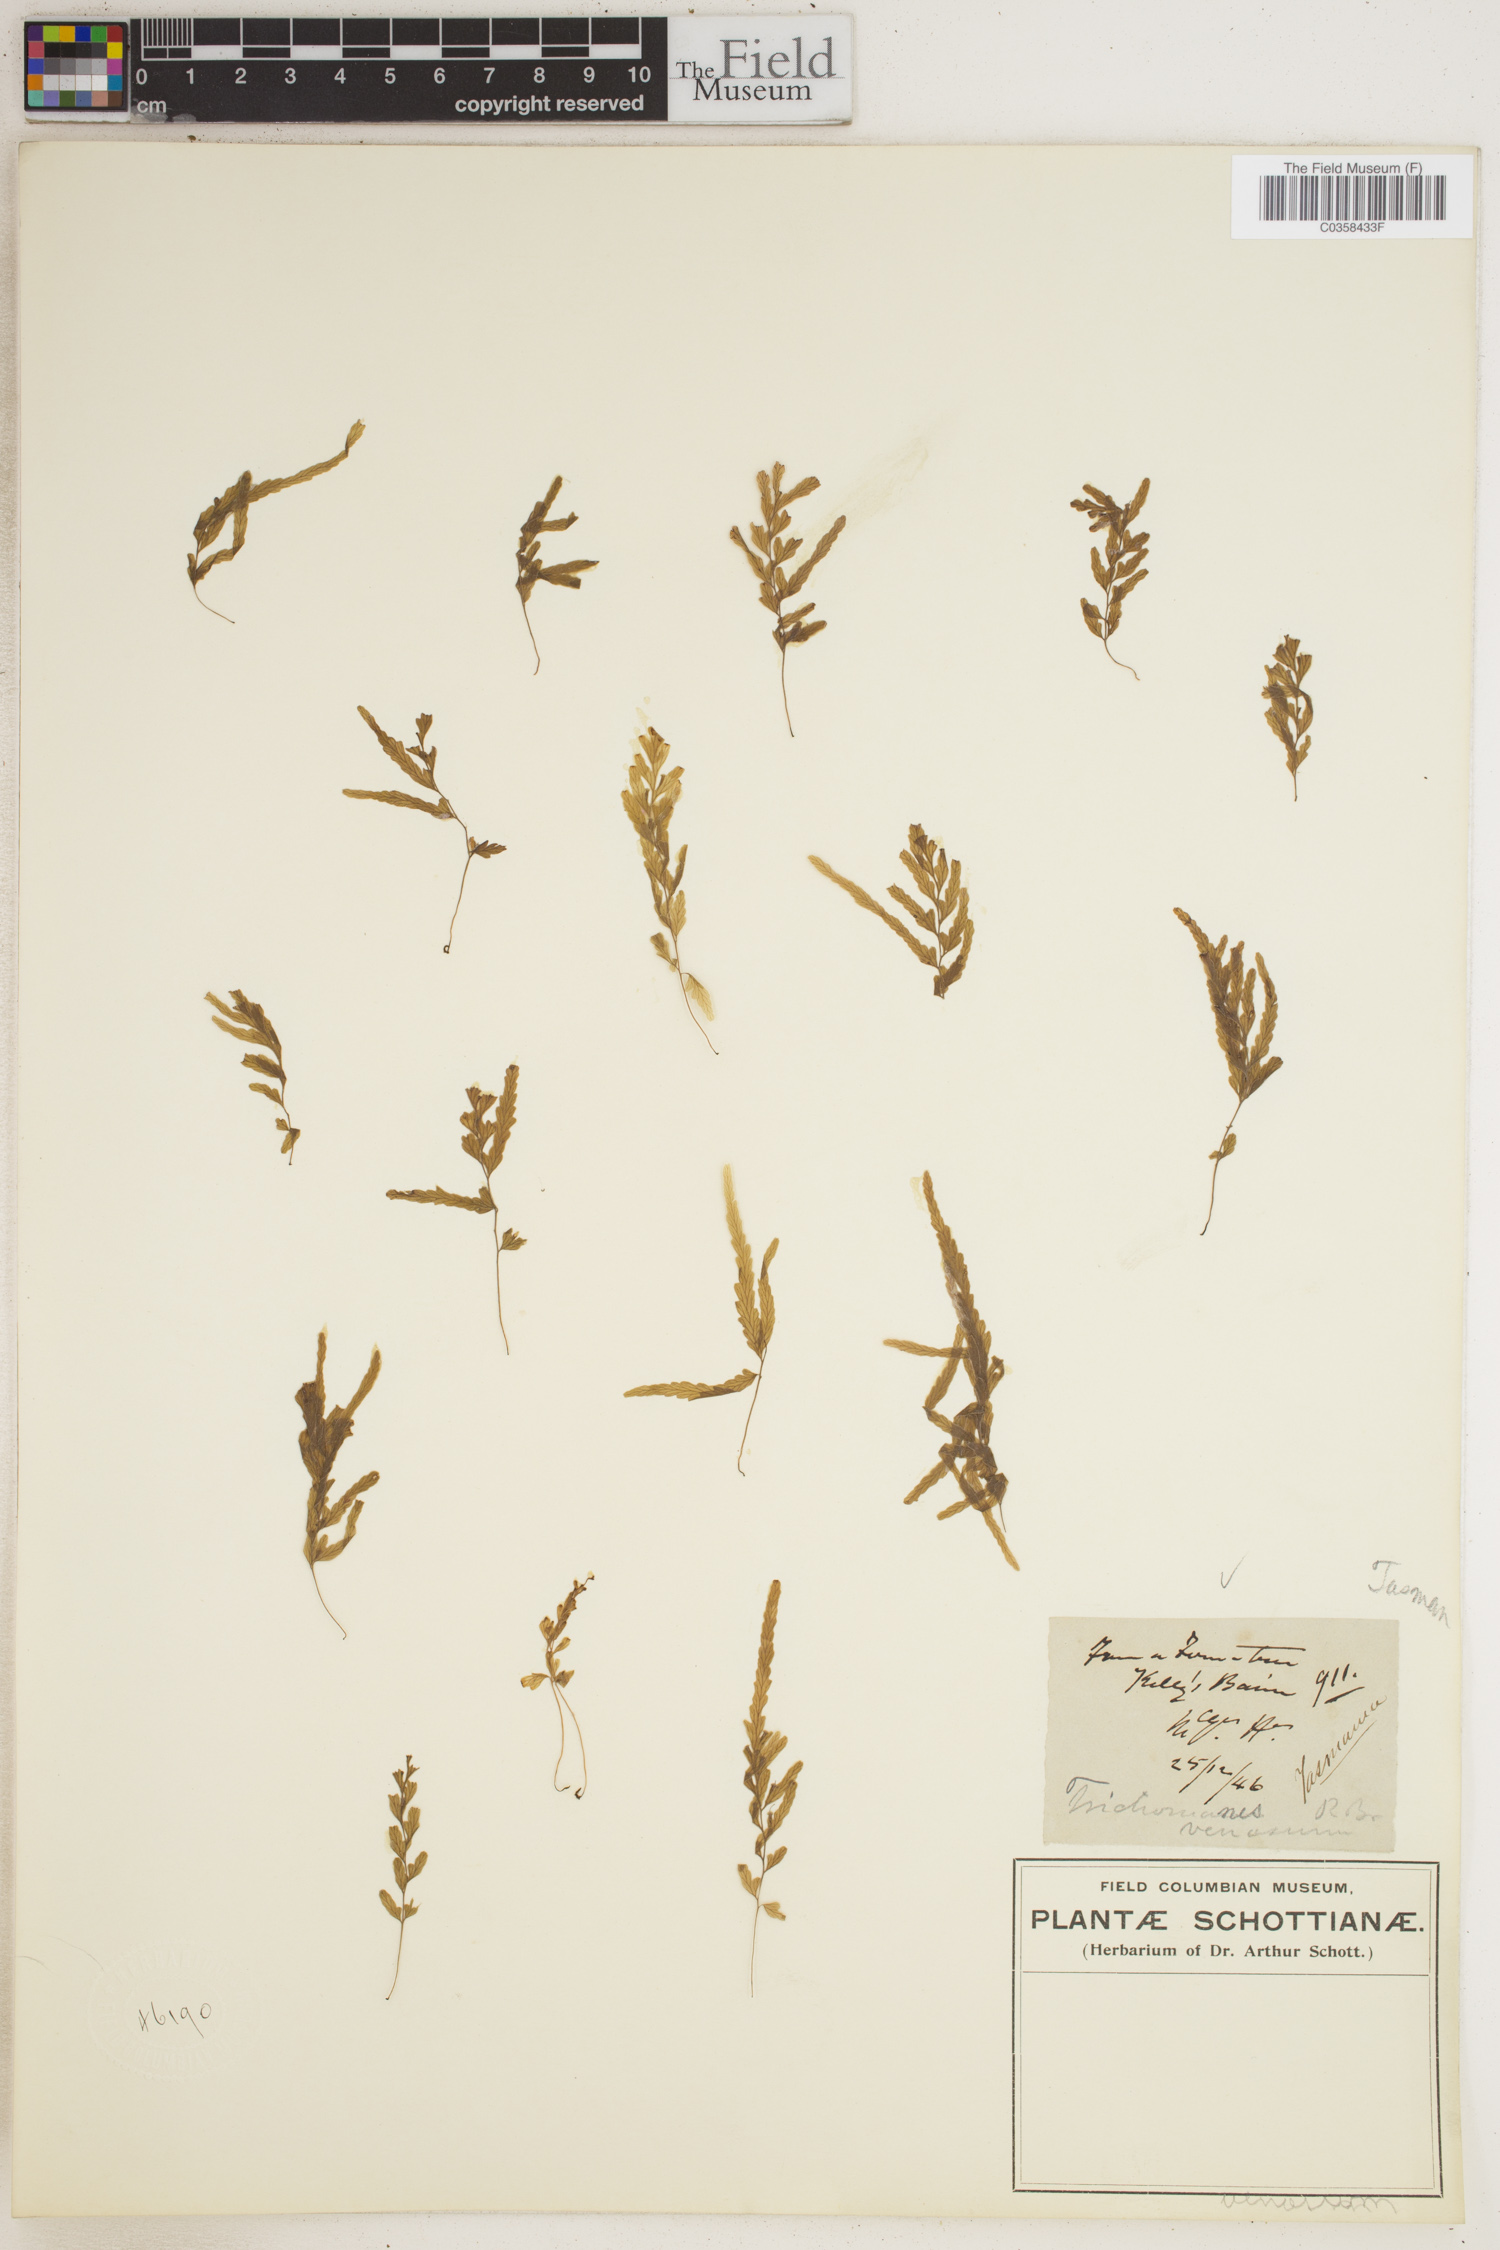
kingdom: Plantae
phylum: Tracheophyta
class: Polypodiopsida
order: Hymenophyllales
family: Hymenophyllaceae
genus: Polyphlebium
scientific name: Polyphlebium venosum
